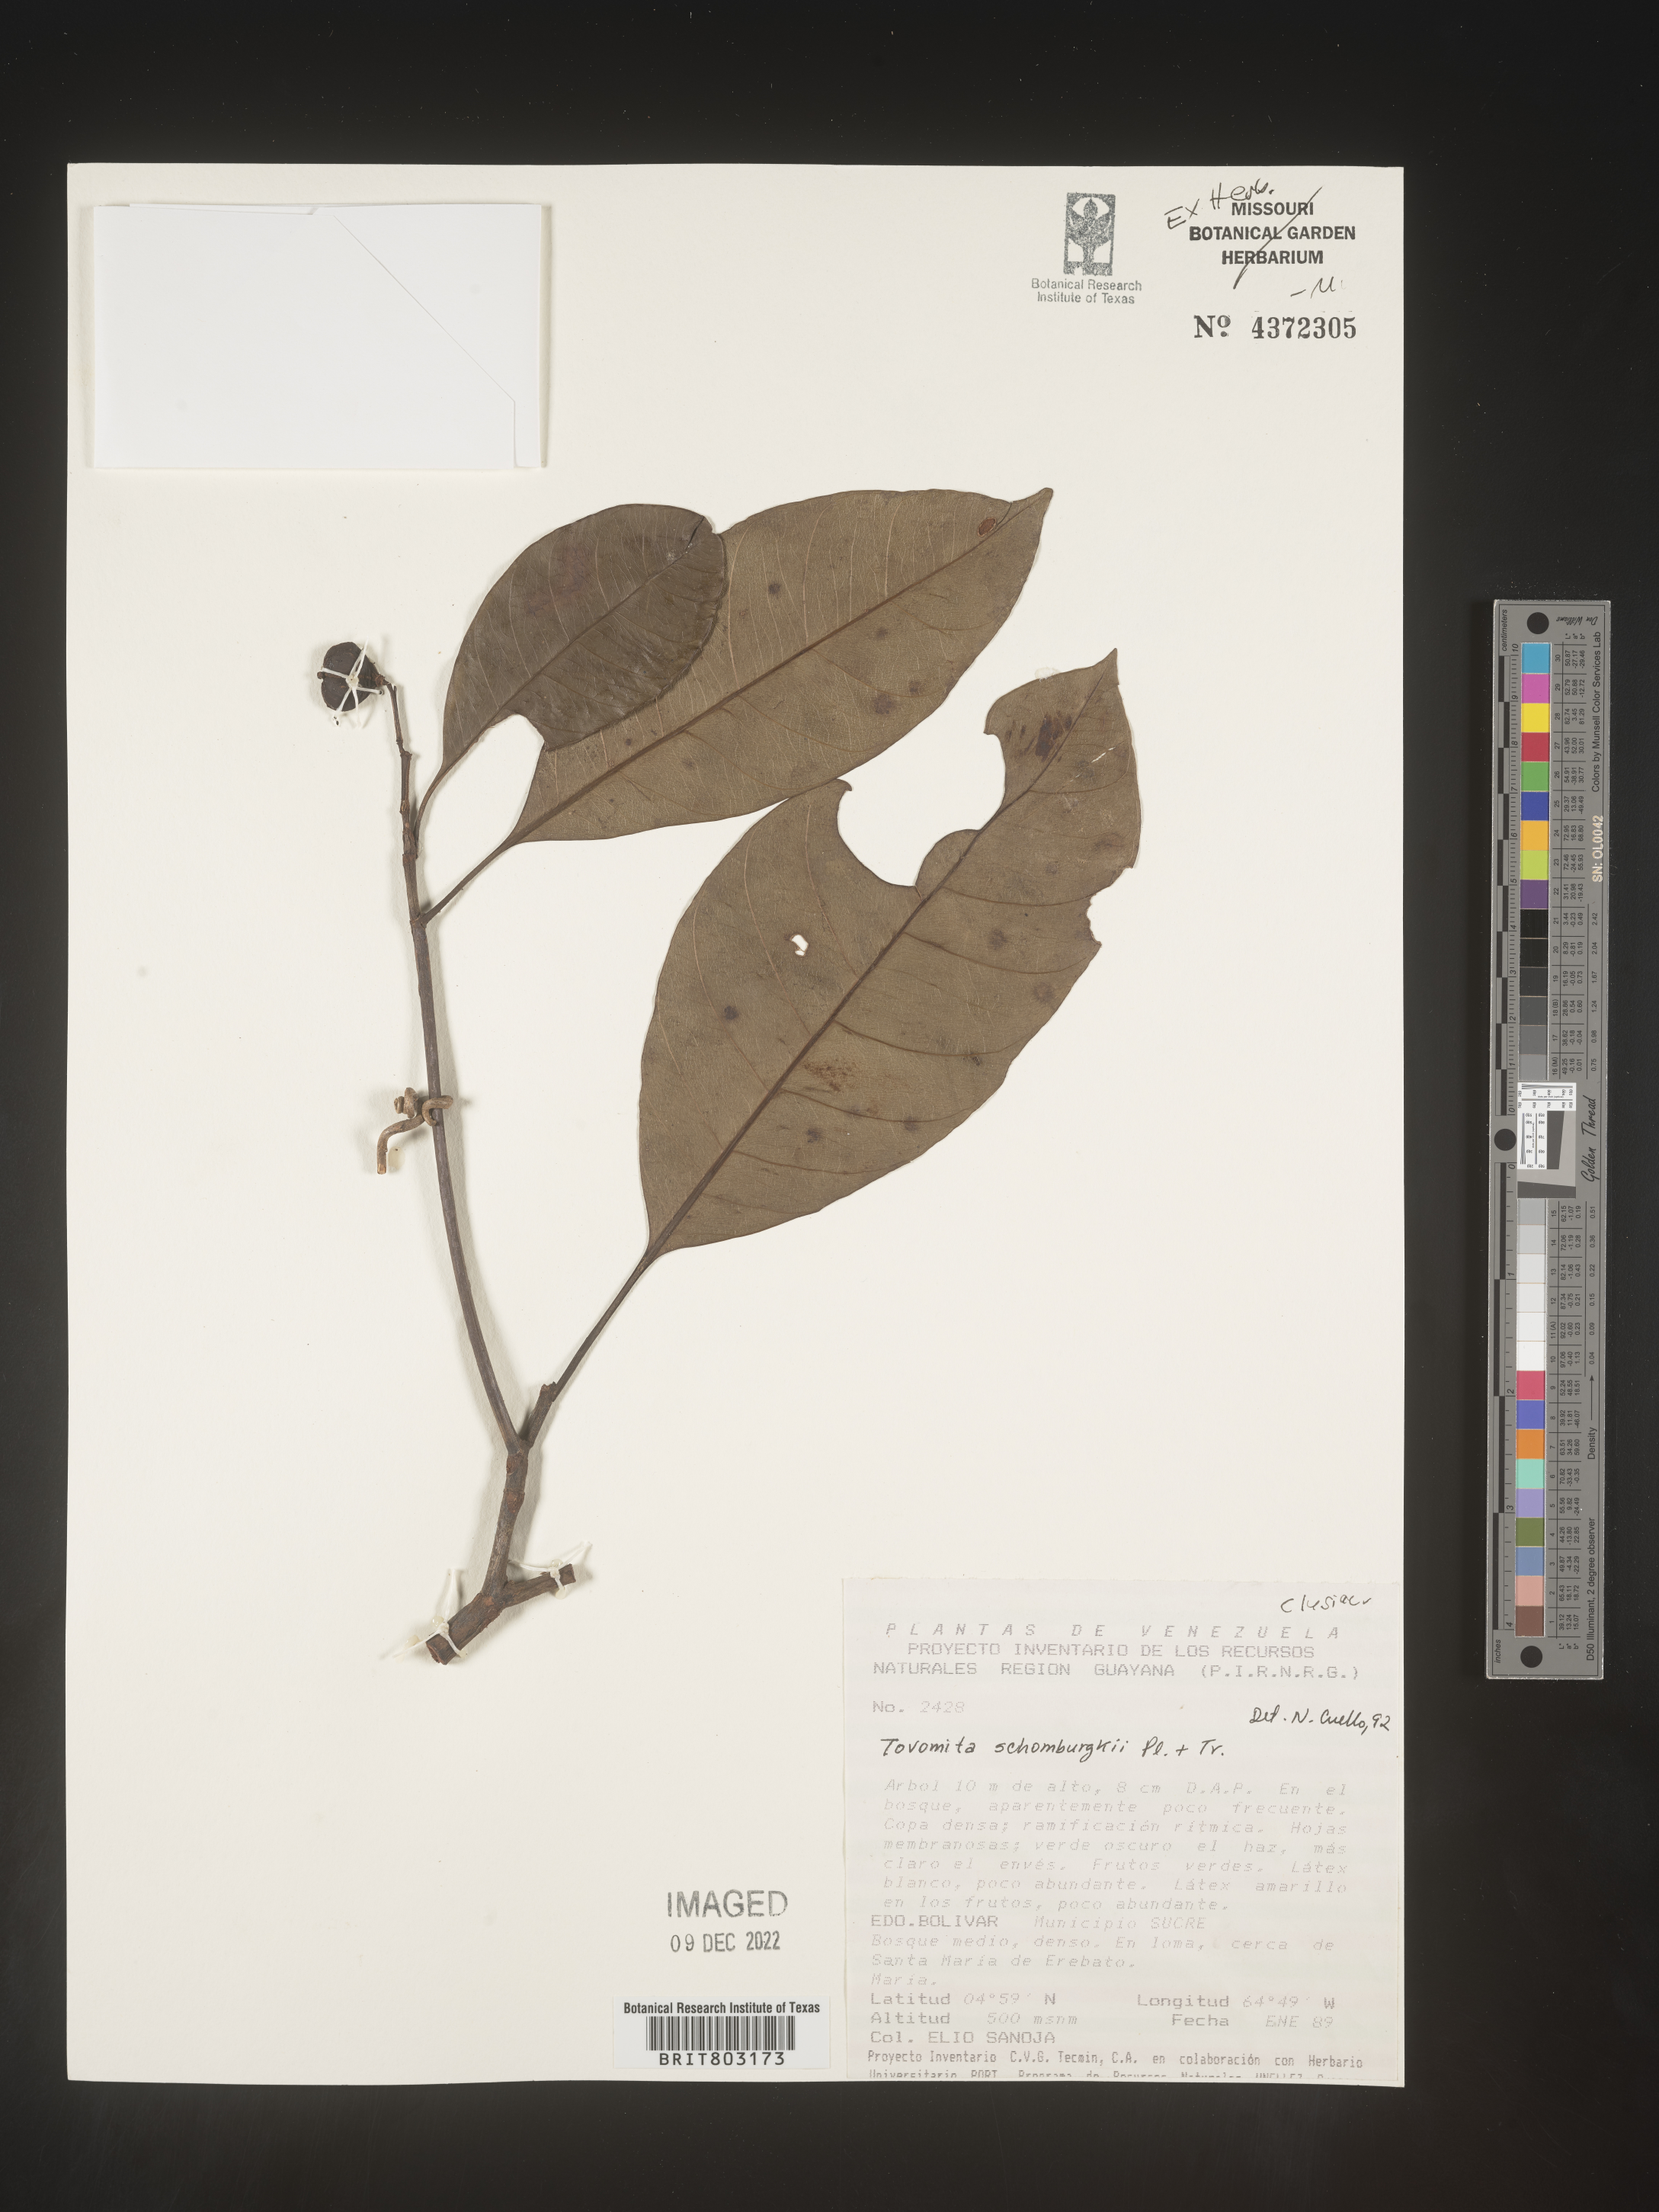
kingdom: Plantae
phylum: Tracheophyta
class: Magnoliopsida
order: Malpighiales
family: Clusiaceae
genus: Tovomita
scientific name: Tovomita
